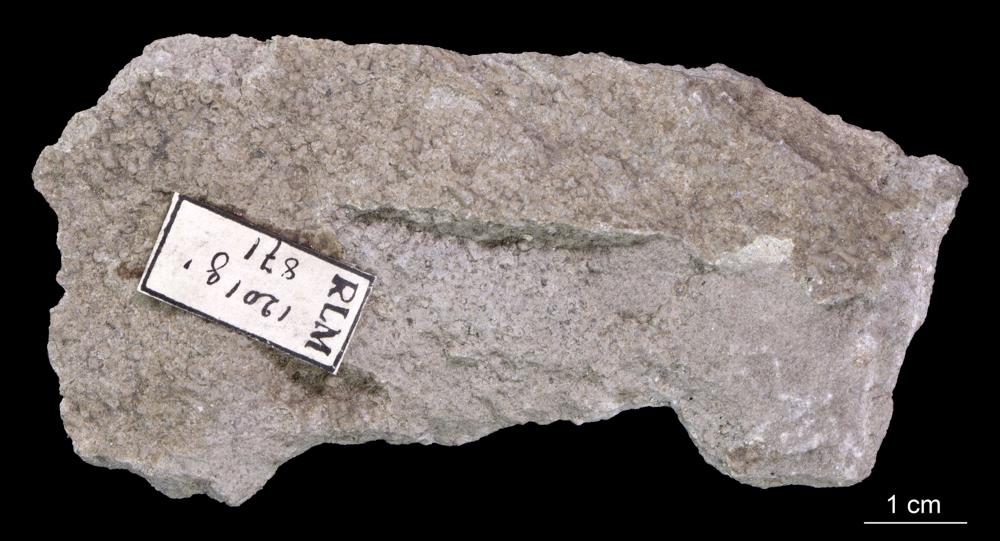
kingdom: Animalia
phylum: Annelida
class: Polychaeta
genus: Volborthella
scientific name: Volborthella tenuis
